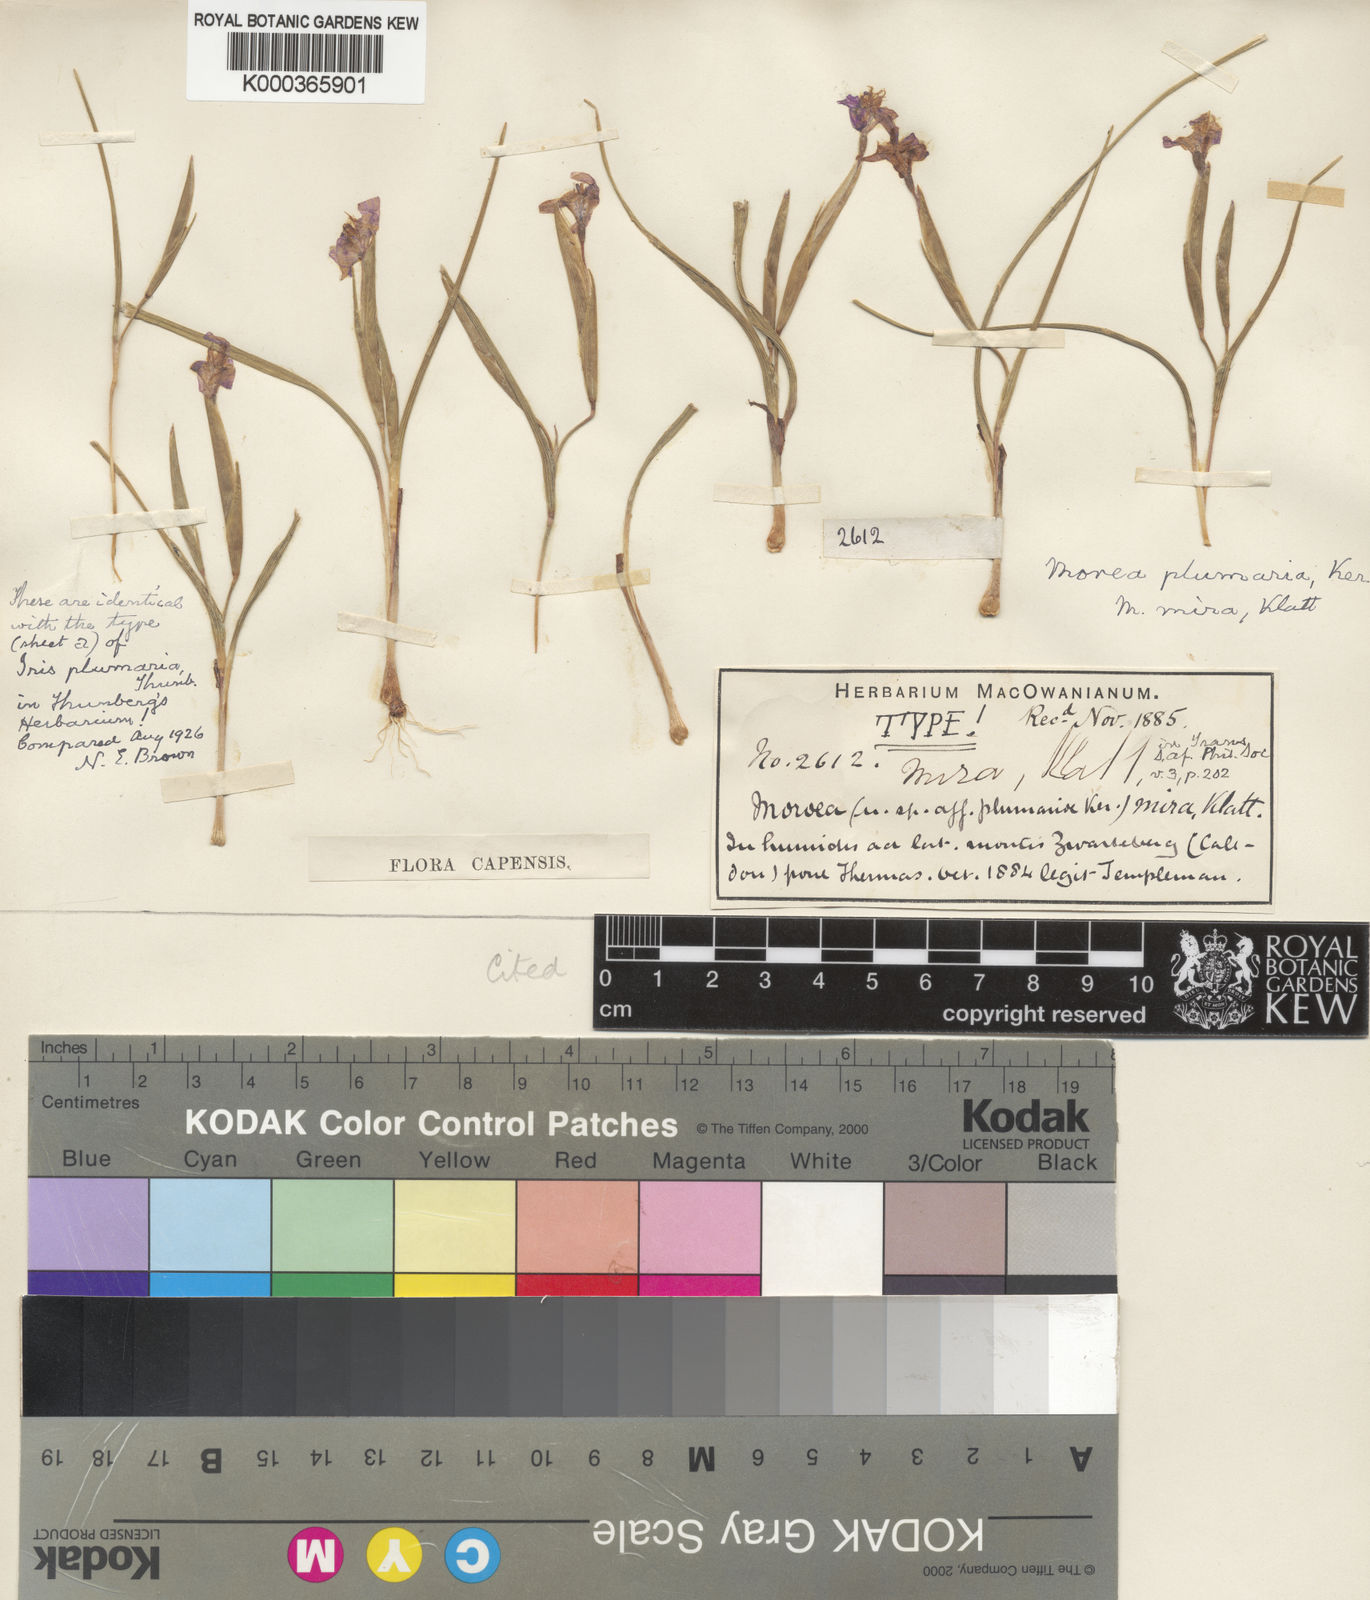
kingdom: Plantae
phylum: Tracheophyta
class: Liliopsida
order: Asparagales
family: Iridaceae
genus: Moraea
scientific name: Moraea lugubris
